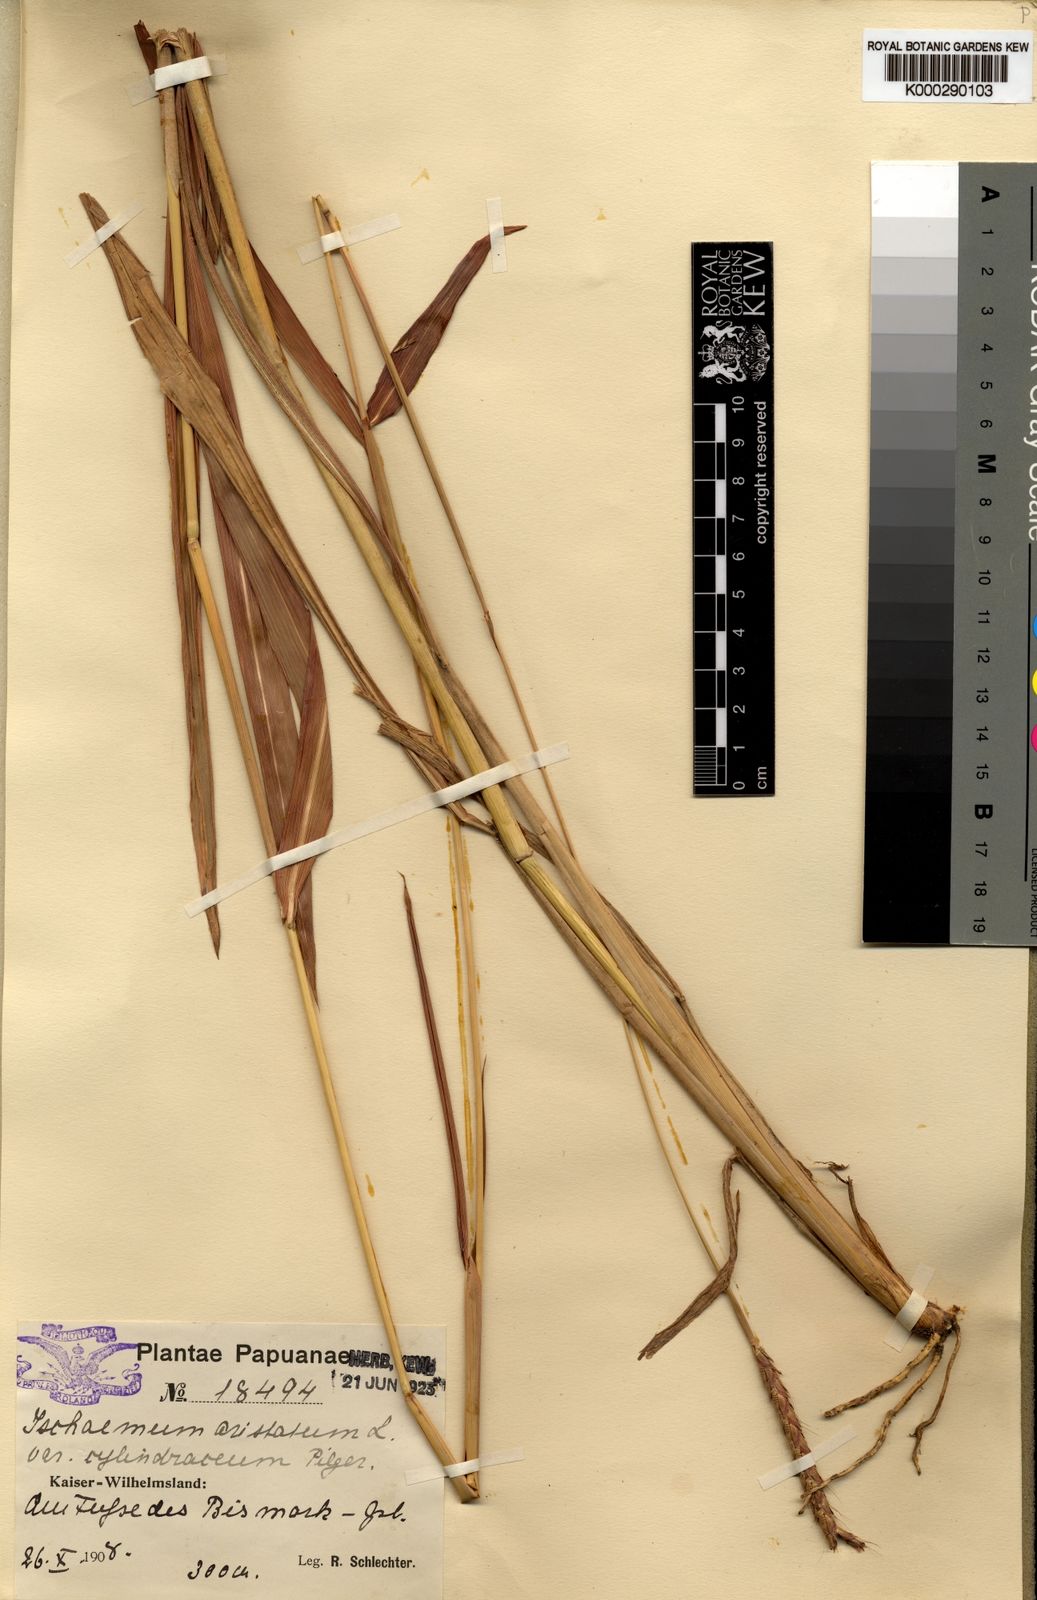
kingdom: Plantae
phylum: Tracheophyta
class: Liliopsida
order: Poales
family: Poaceae
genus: Ischaemum
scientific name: Ischaemum australe
